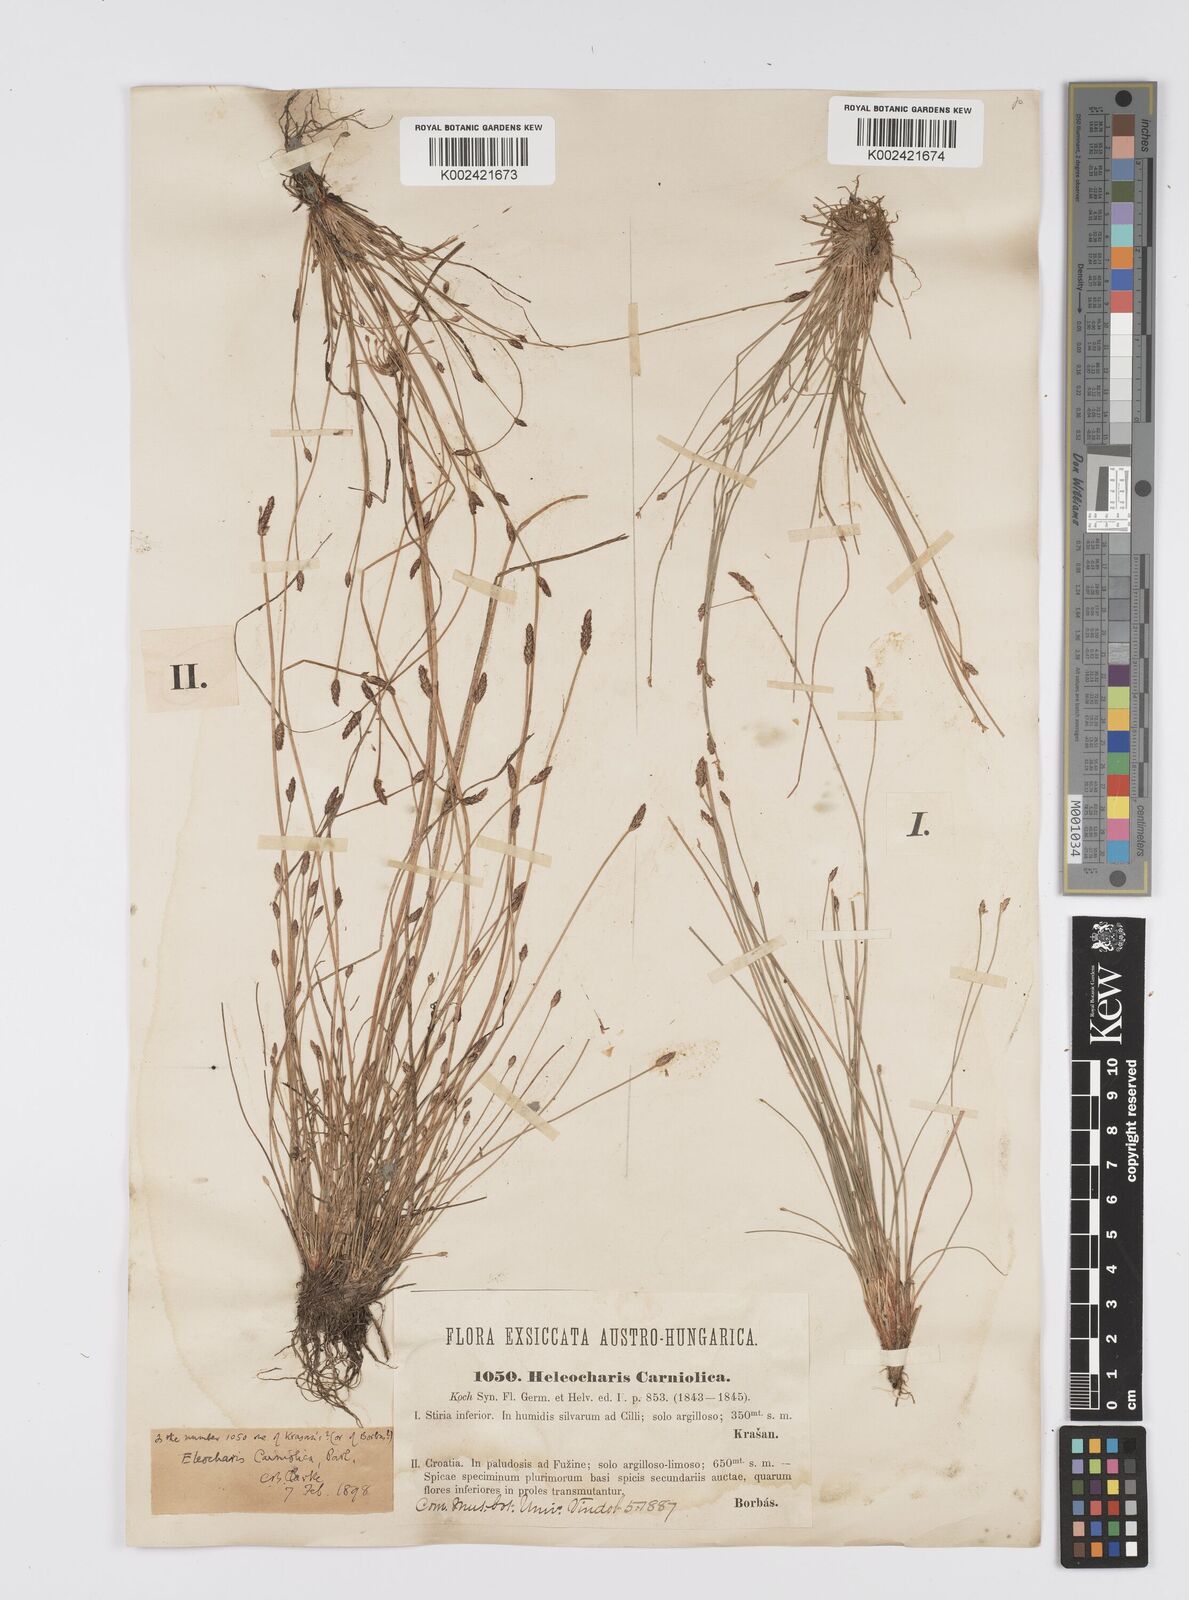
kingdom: Plantae
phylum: Tracheophyta
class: Liliopsida
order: Poales
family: Cyperaceae
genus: Eleocharis
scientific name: Eleocharis carniolica
